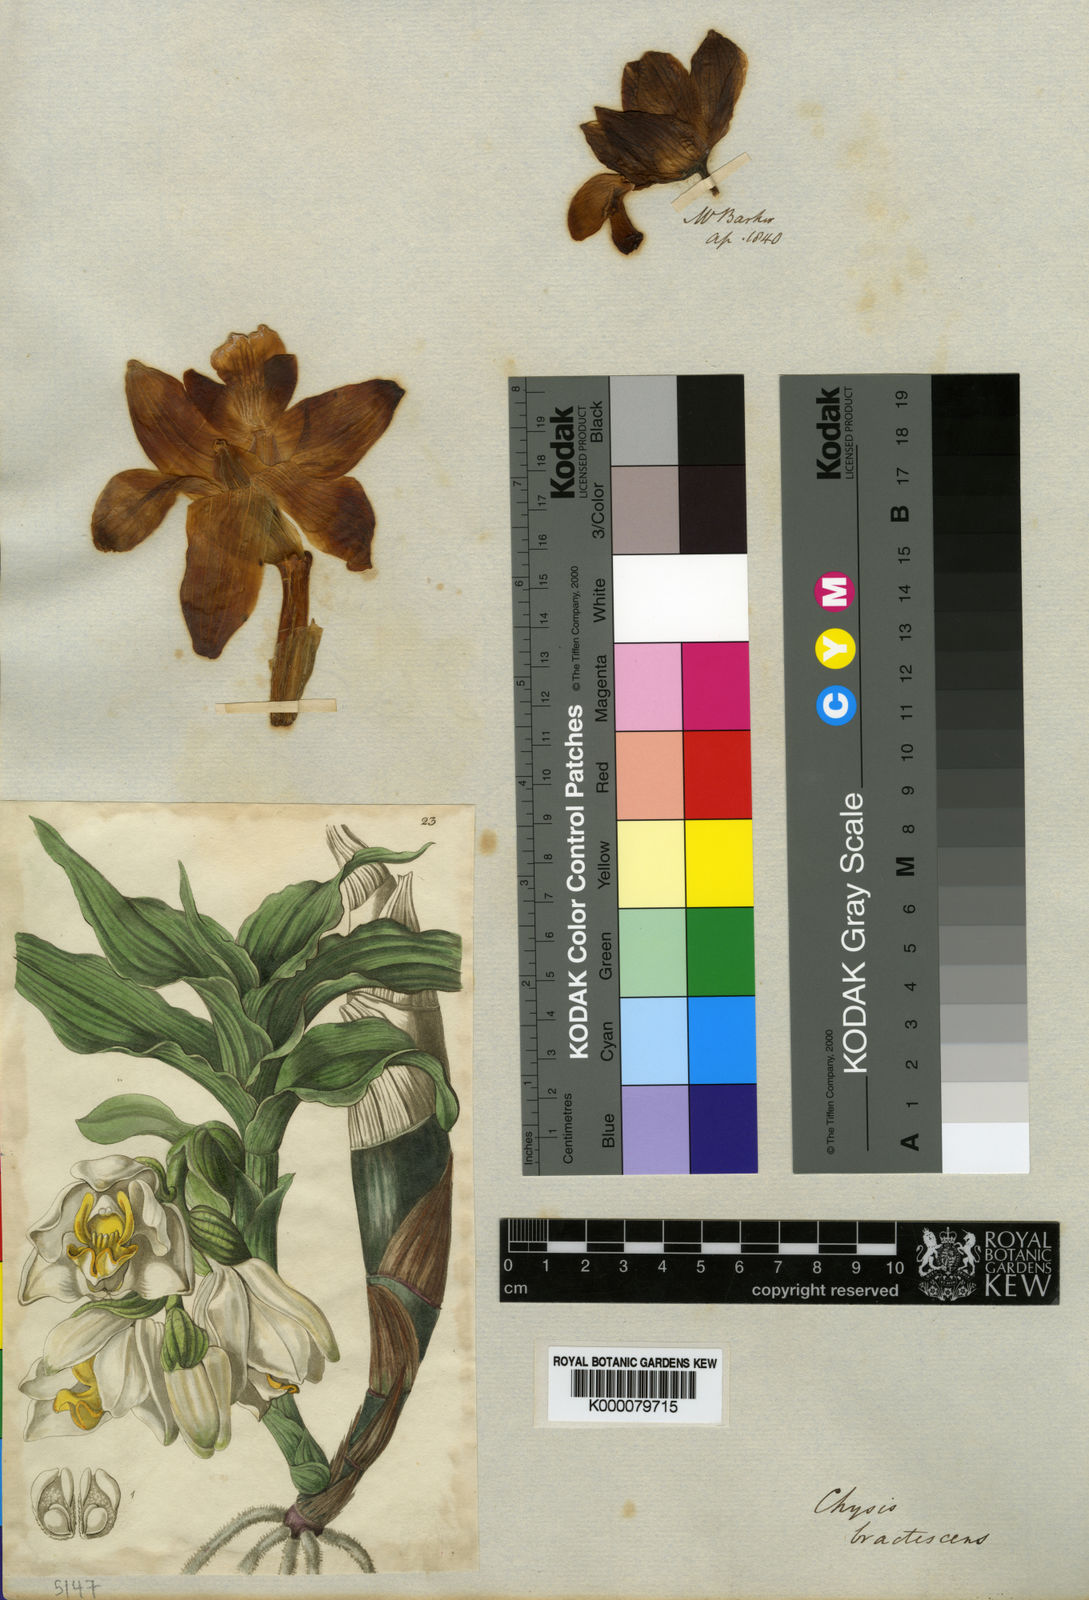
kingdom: Plantae
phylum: Tracheophyta
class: Liliopsida
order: Asparagales
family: Orchidaceae
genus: Chysis
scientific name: Chysis bractescens
